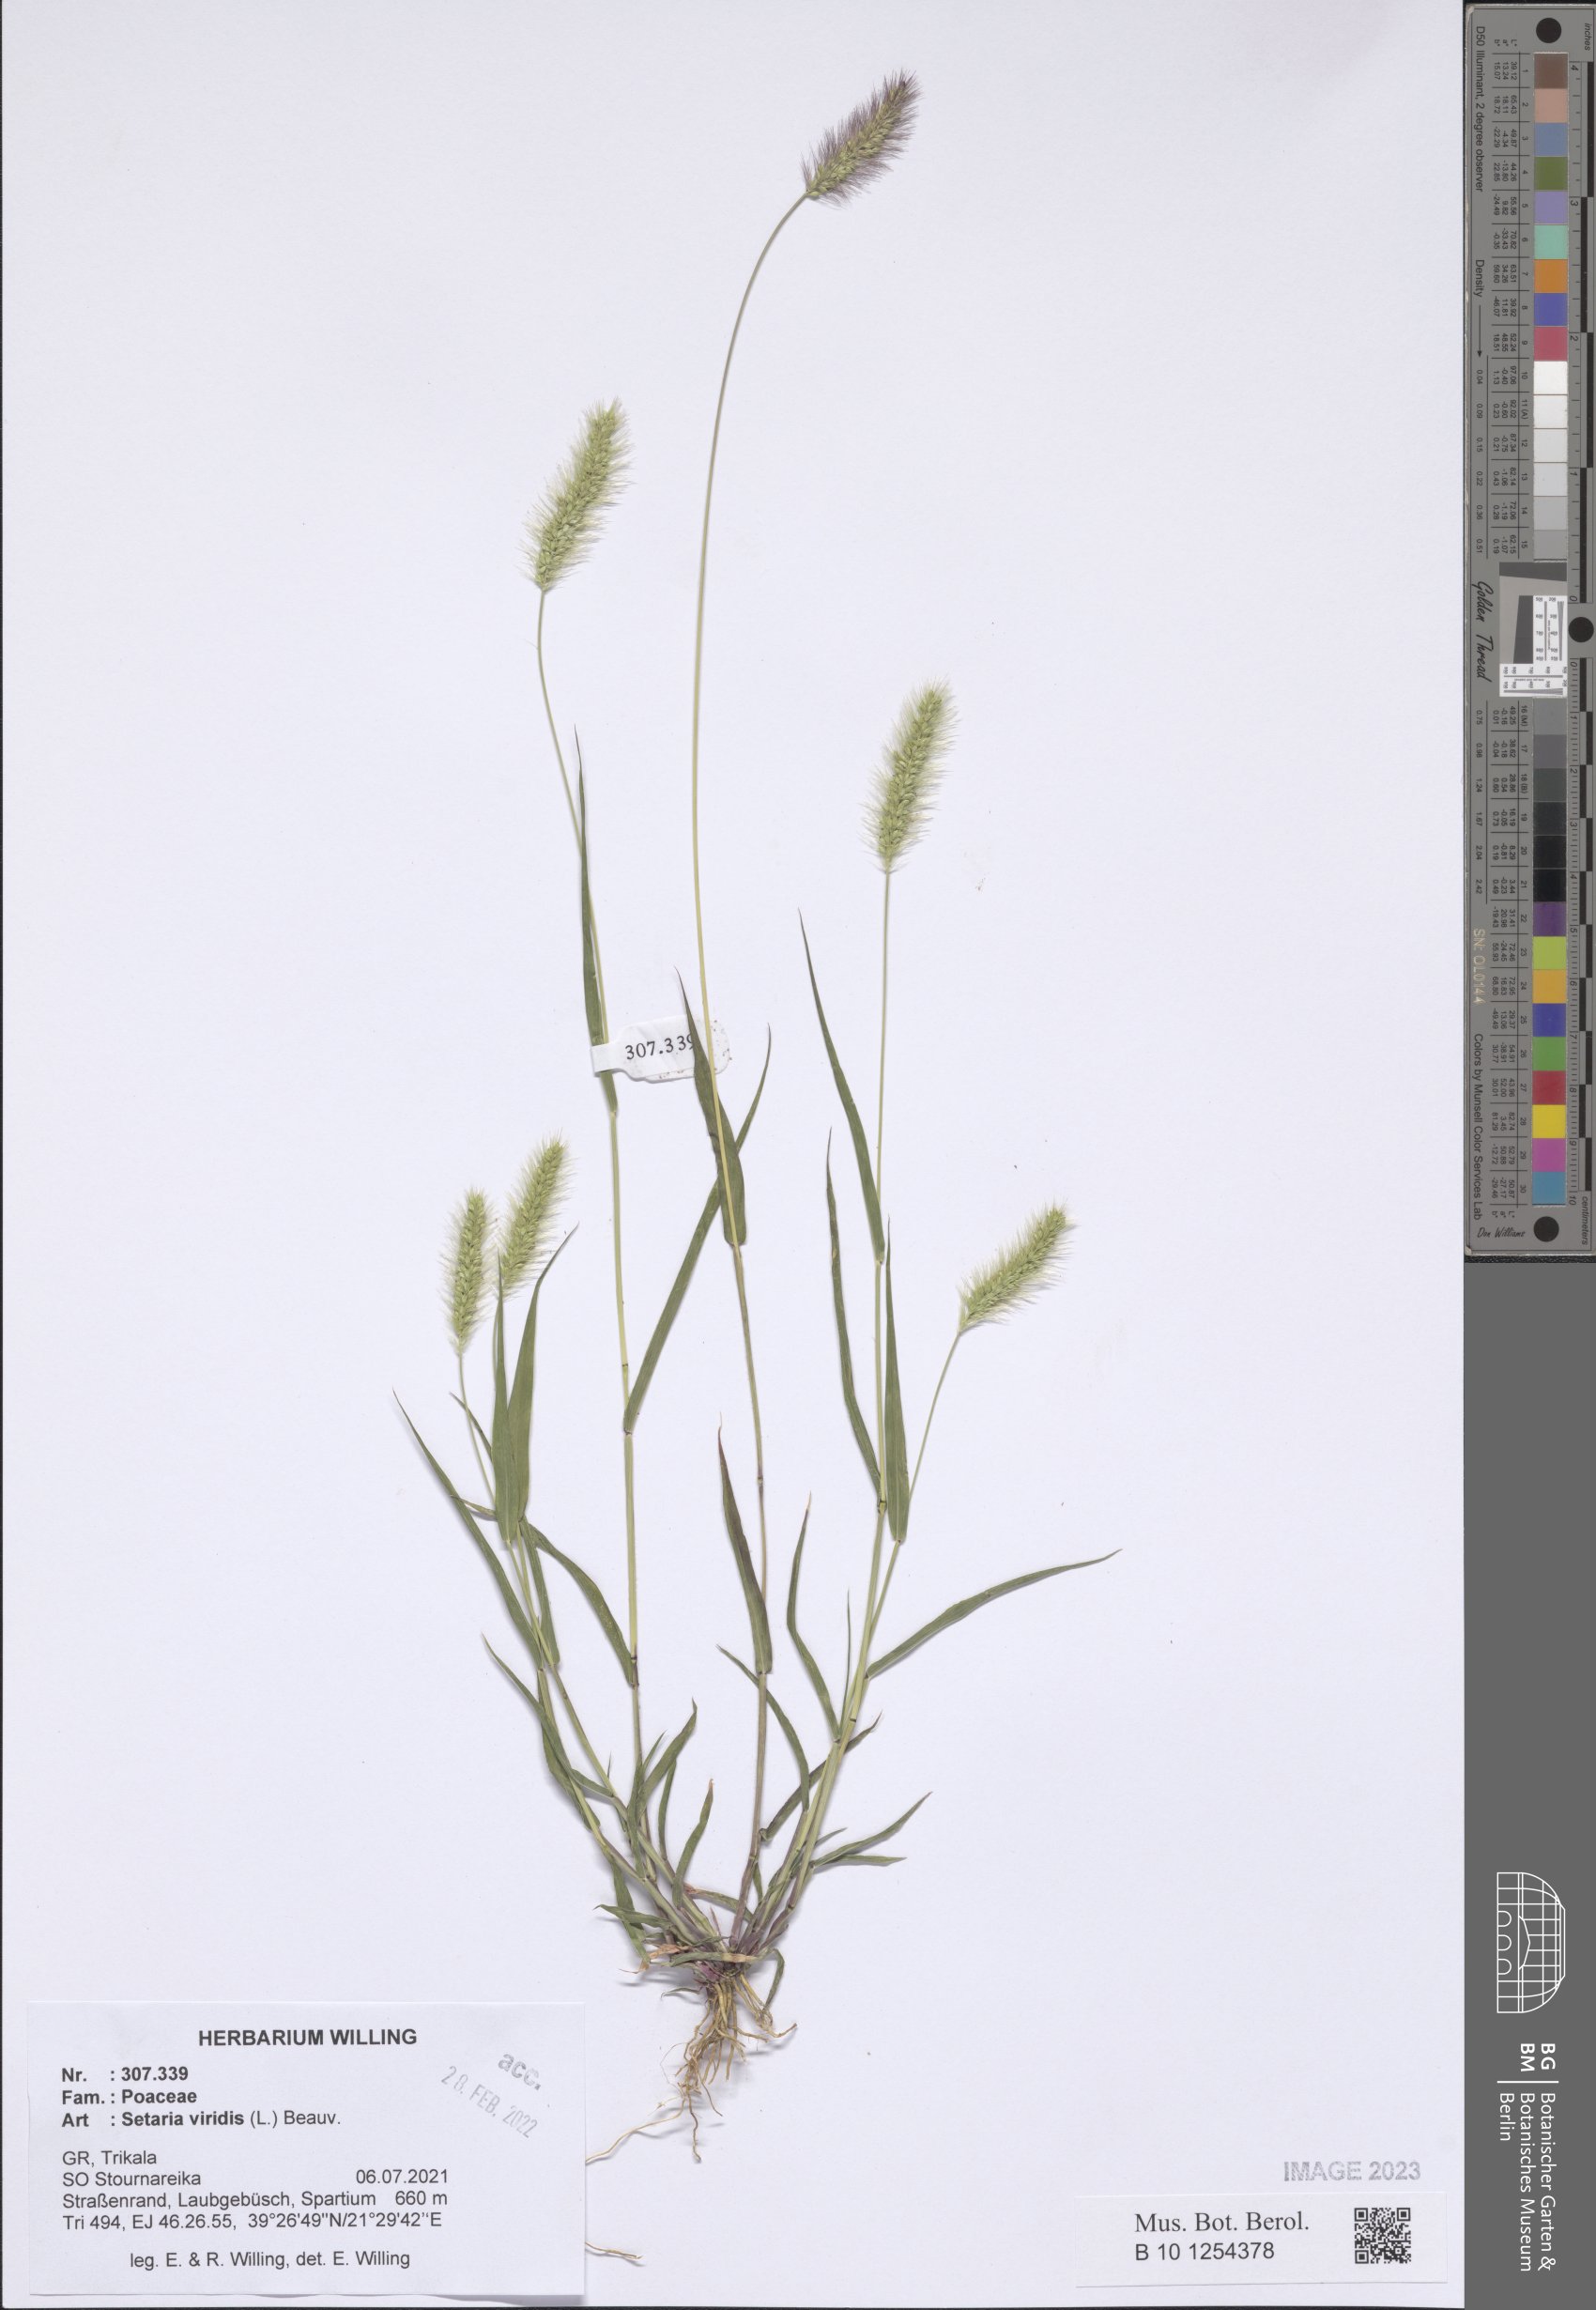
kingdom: Plantae
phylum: Tracheophyta
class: Liliopsida
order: Poales
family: Poaceae
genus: Setaria
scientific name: Setaria viridis
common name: Green bristlegrass
